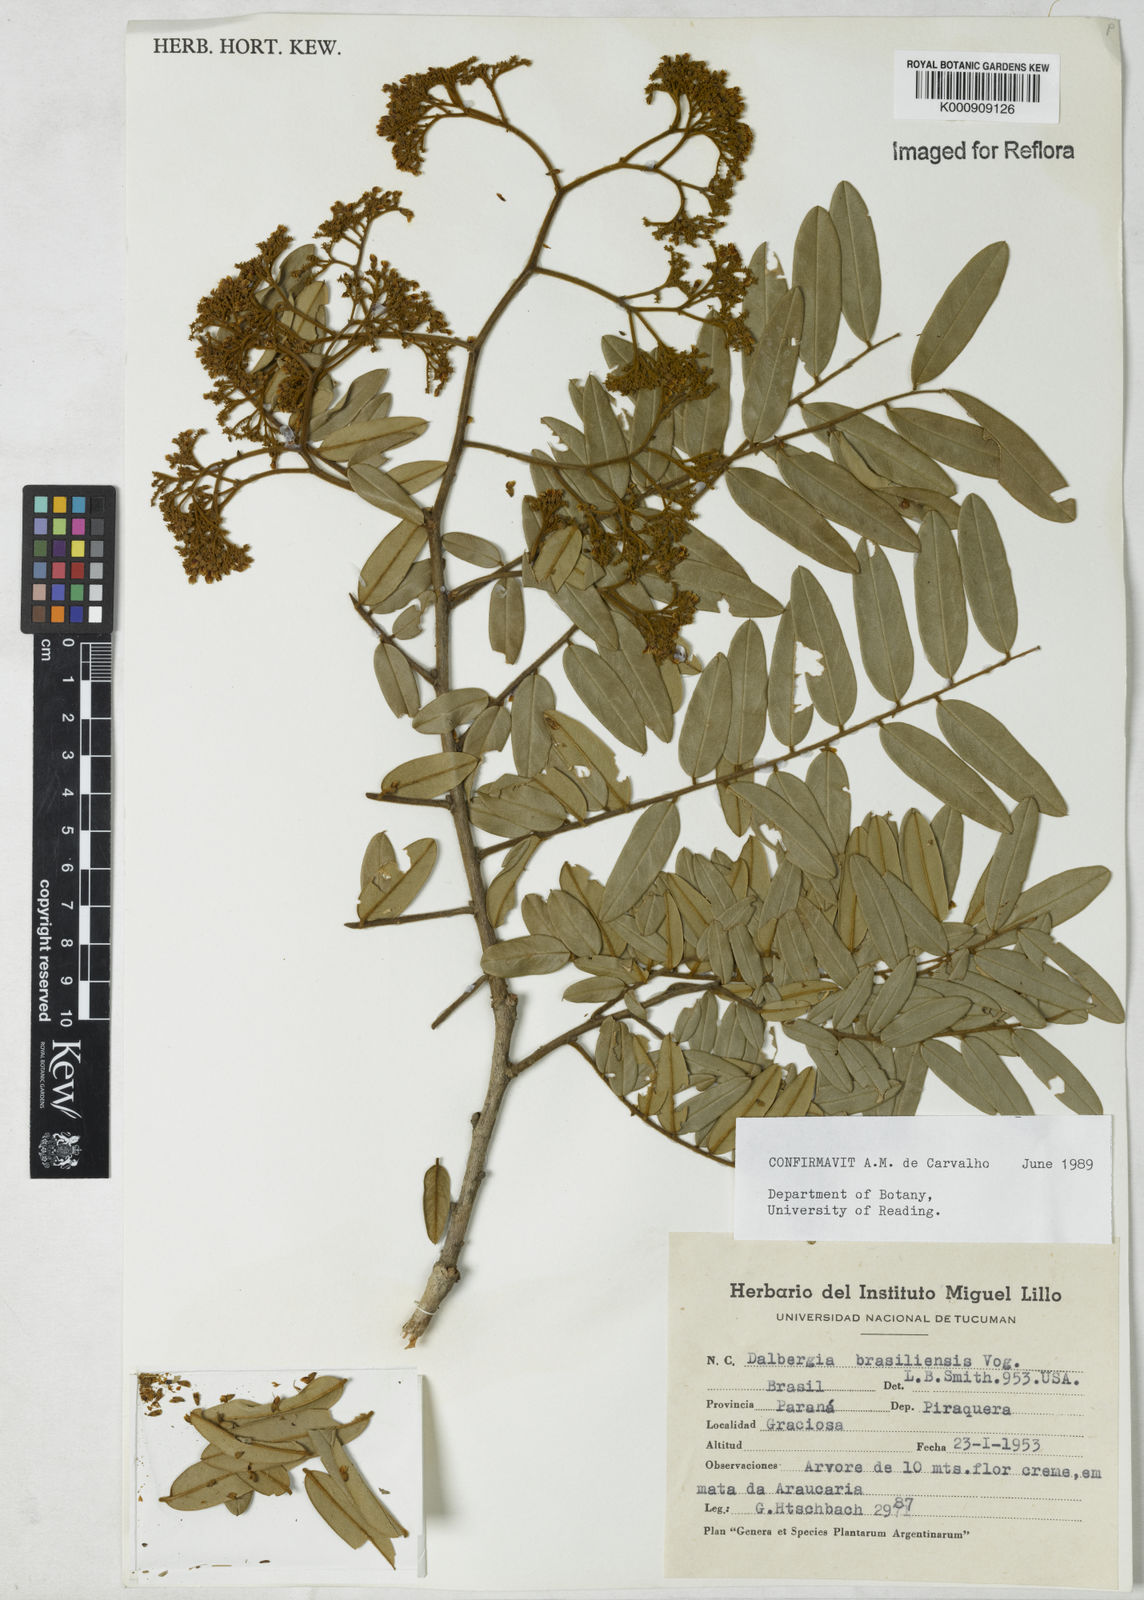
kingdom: Plantae
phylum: Tracheophyta
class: Magnoliopsida
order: Fabales
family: Fabaceae
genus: Dalbergia
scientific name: Dalbergia brasiliensis
